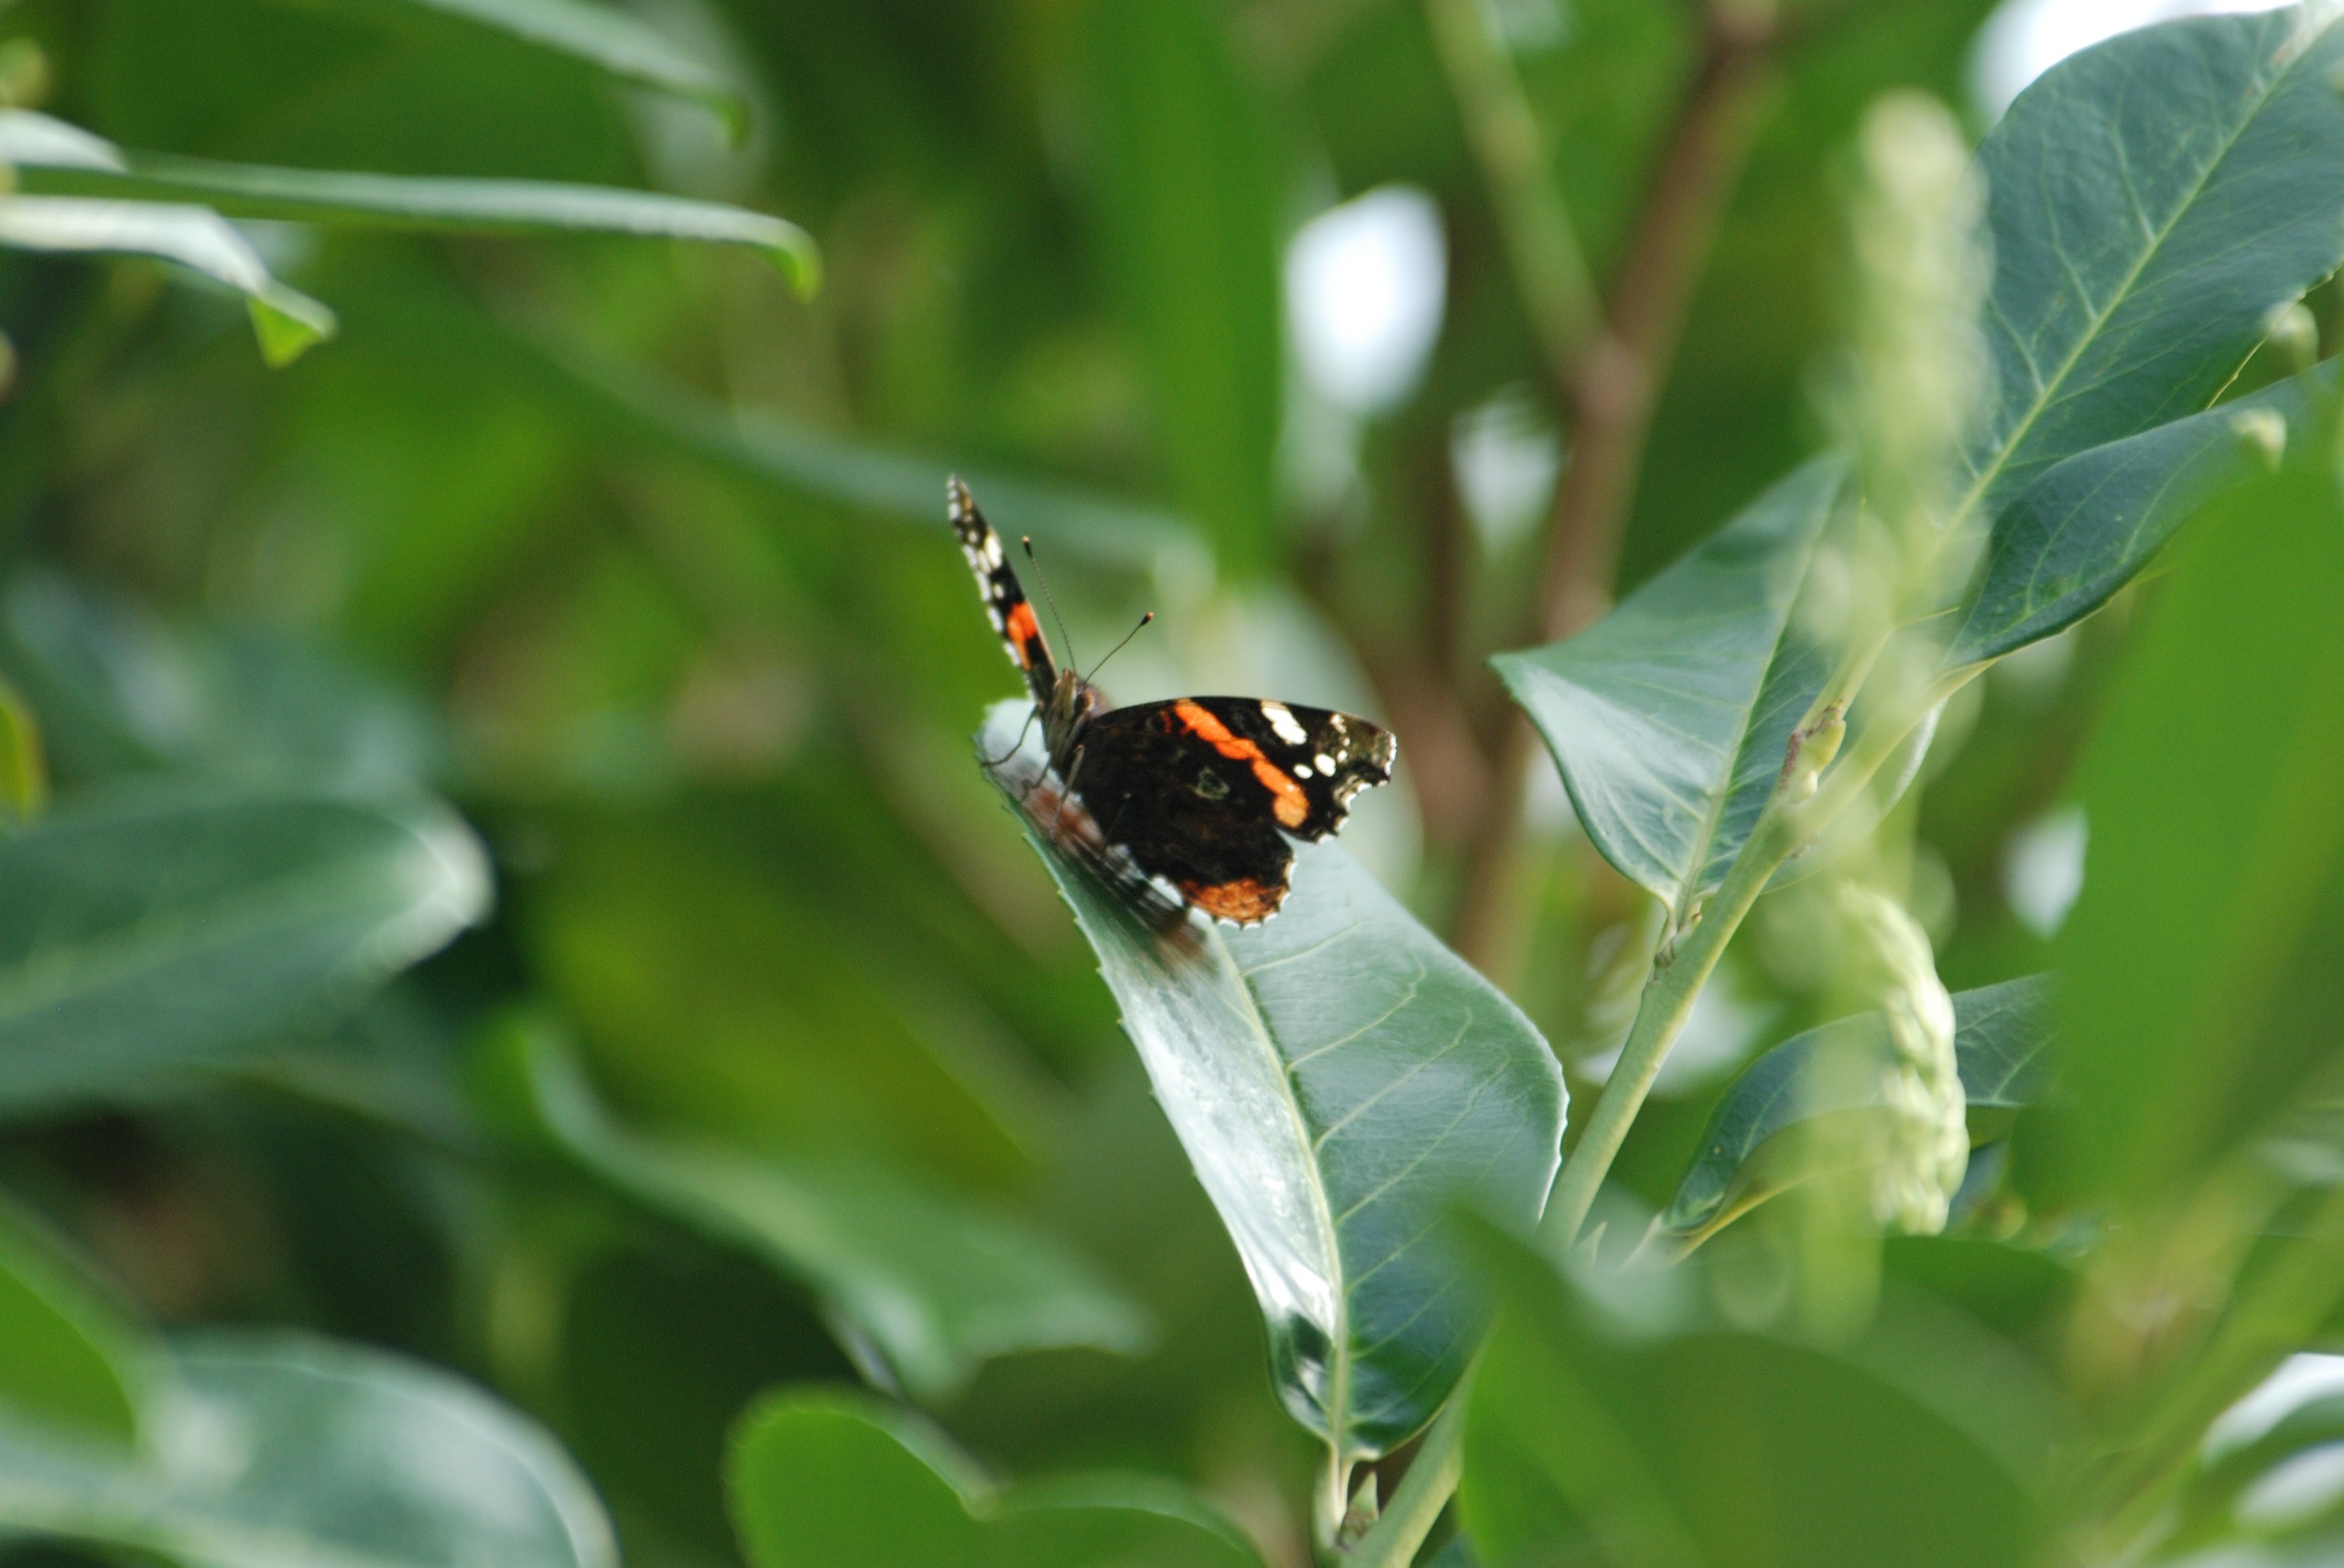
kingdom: Animalia
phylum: Arthropoda
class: Insecta
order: Lepidoptera
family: Nymphalidae
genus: Vanessa
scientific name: Vanessa atalanta
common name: Admiral
